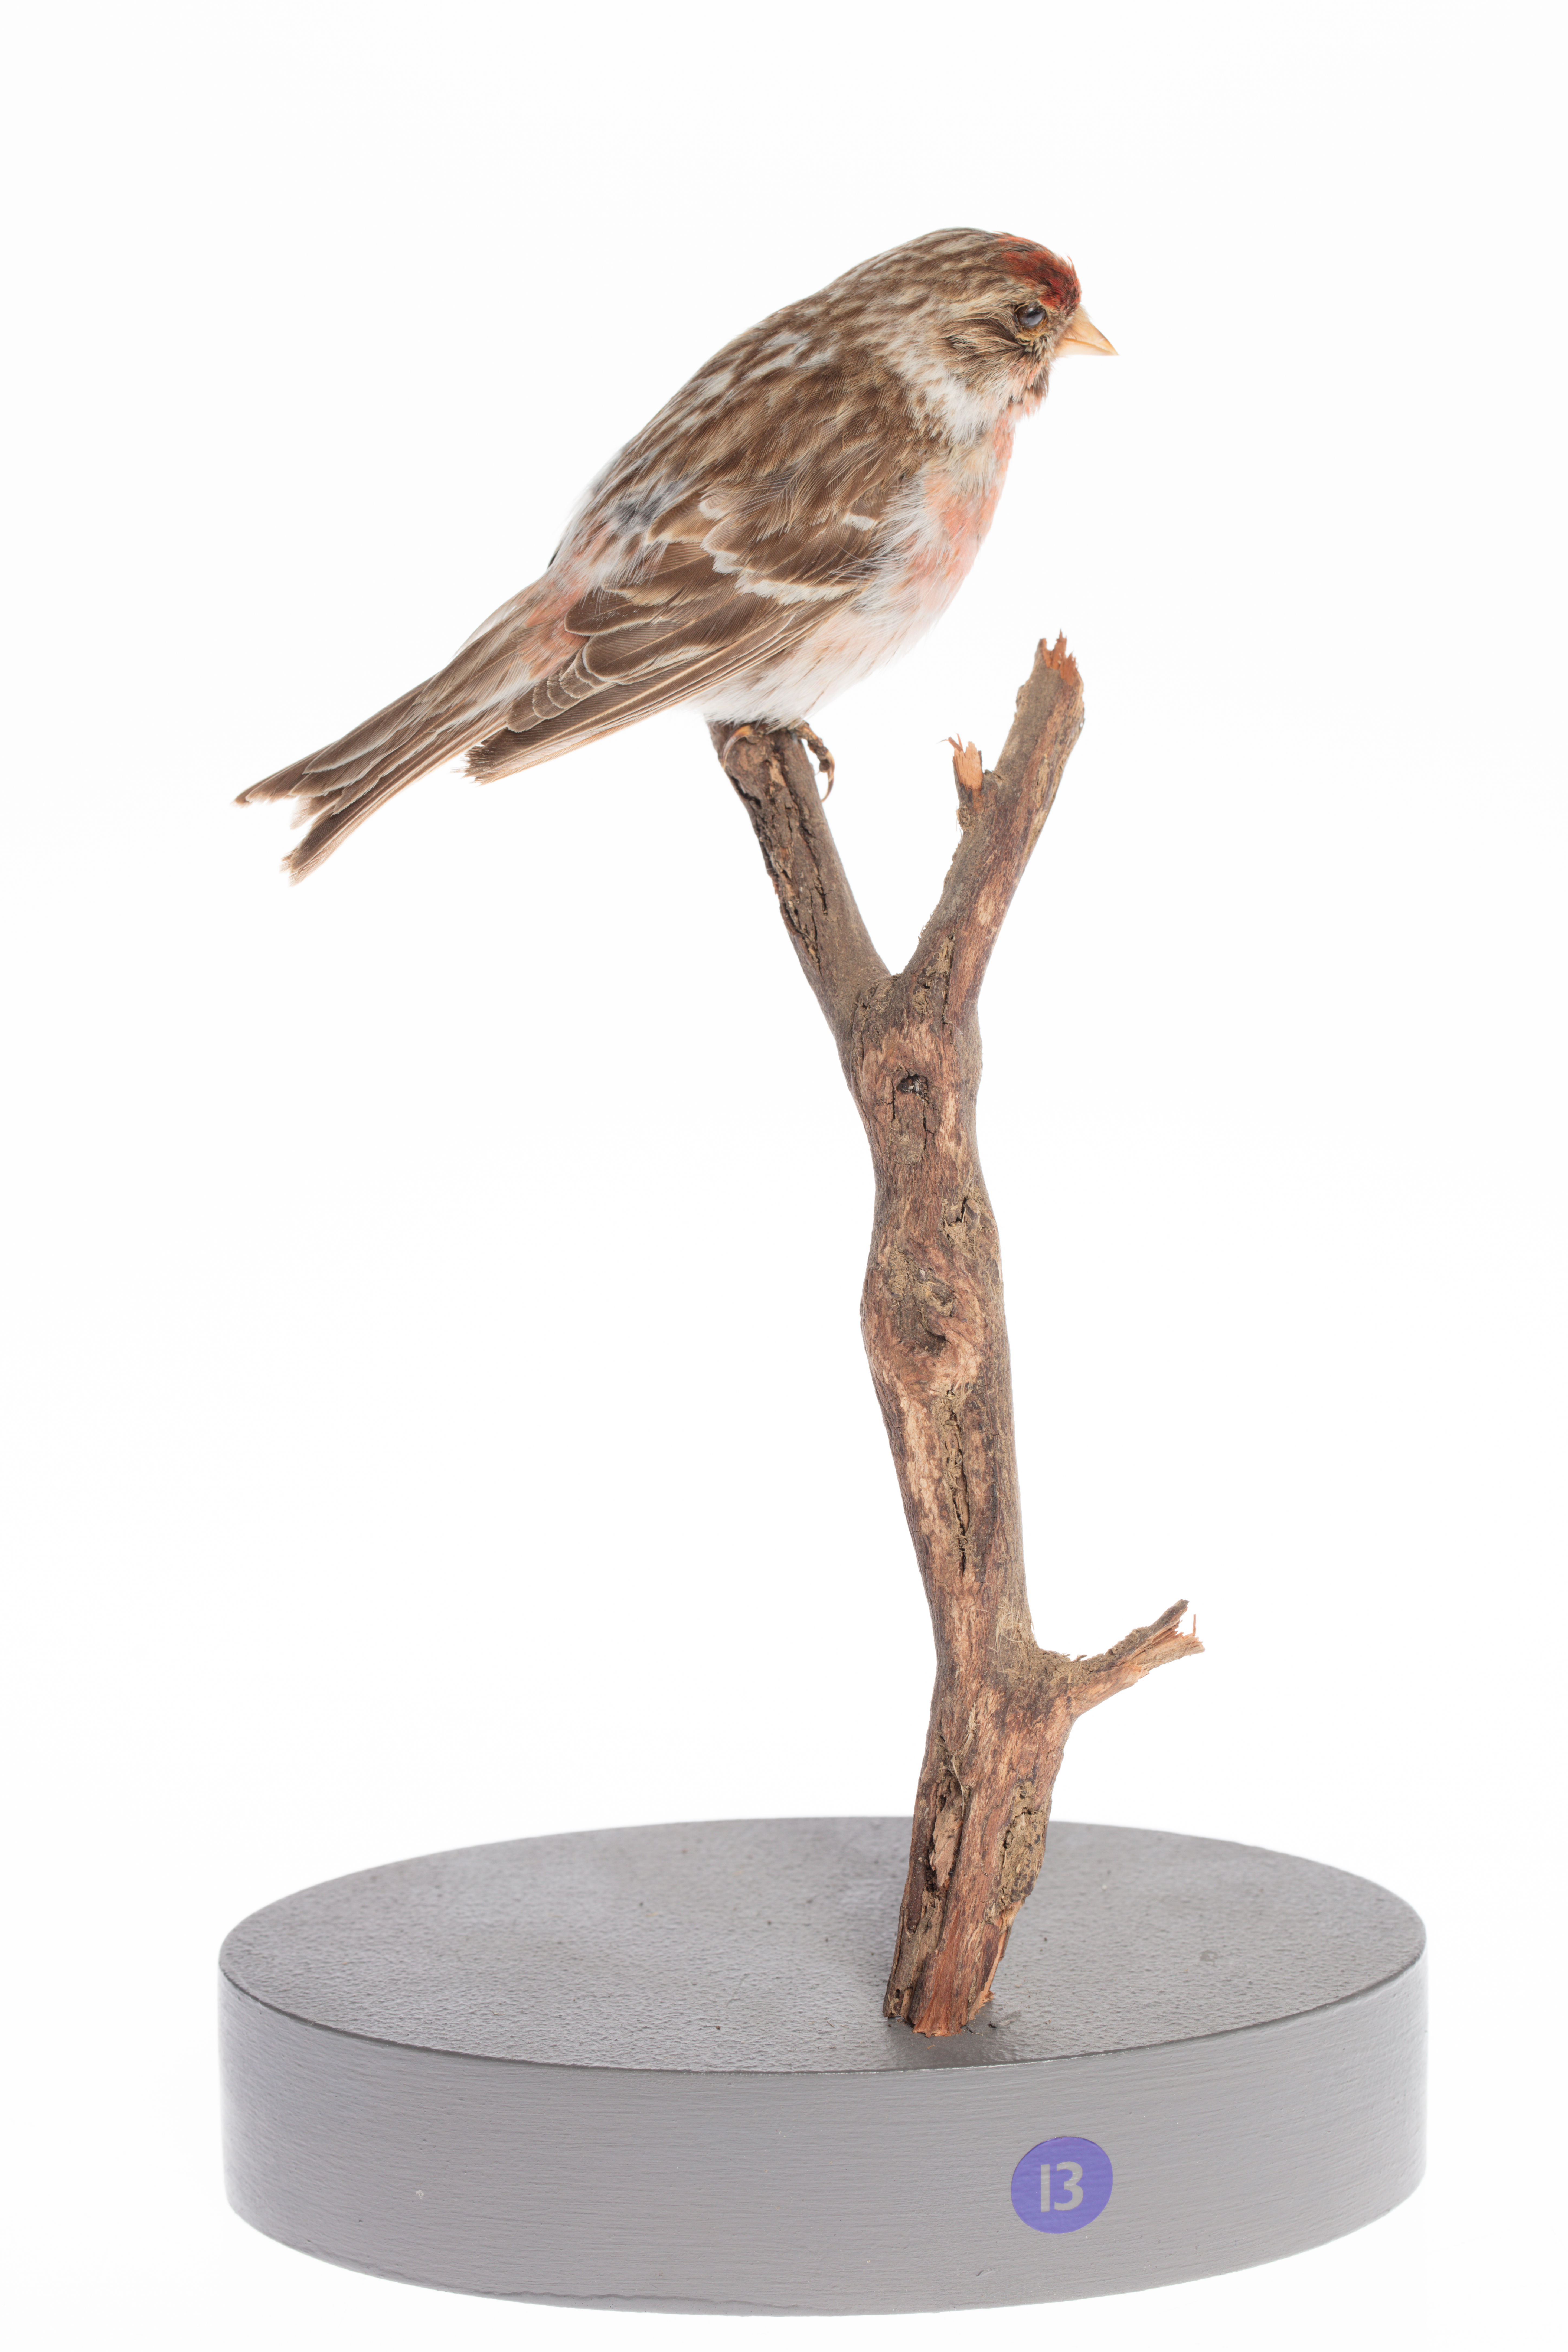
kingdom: Animalia
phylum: Chordata
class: Aves
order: Passeriformes
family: Fringillidae
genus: Acanthis
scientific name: Acanthis flammea
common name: Common redpoll
